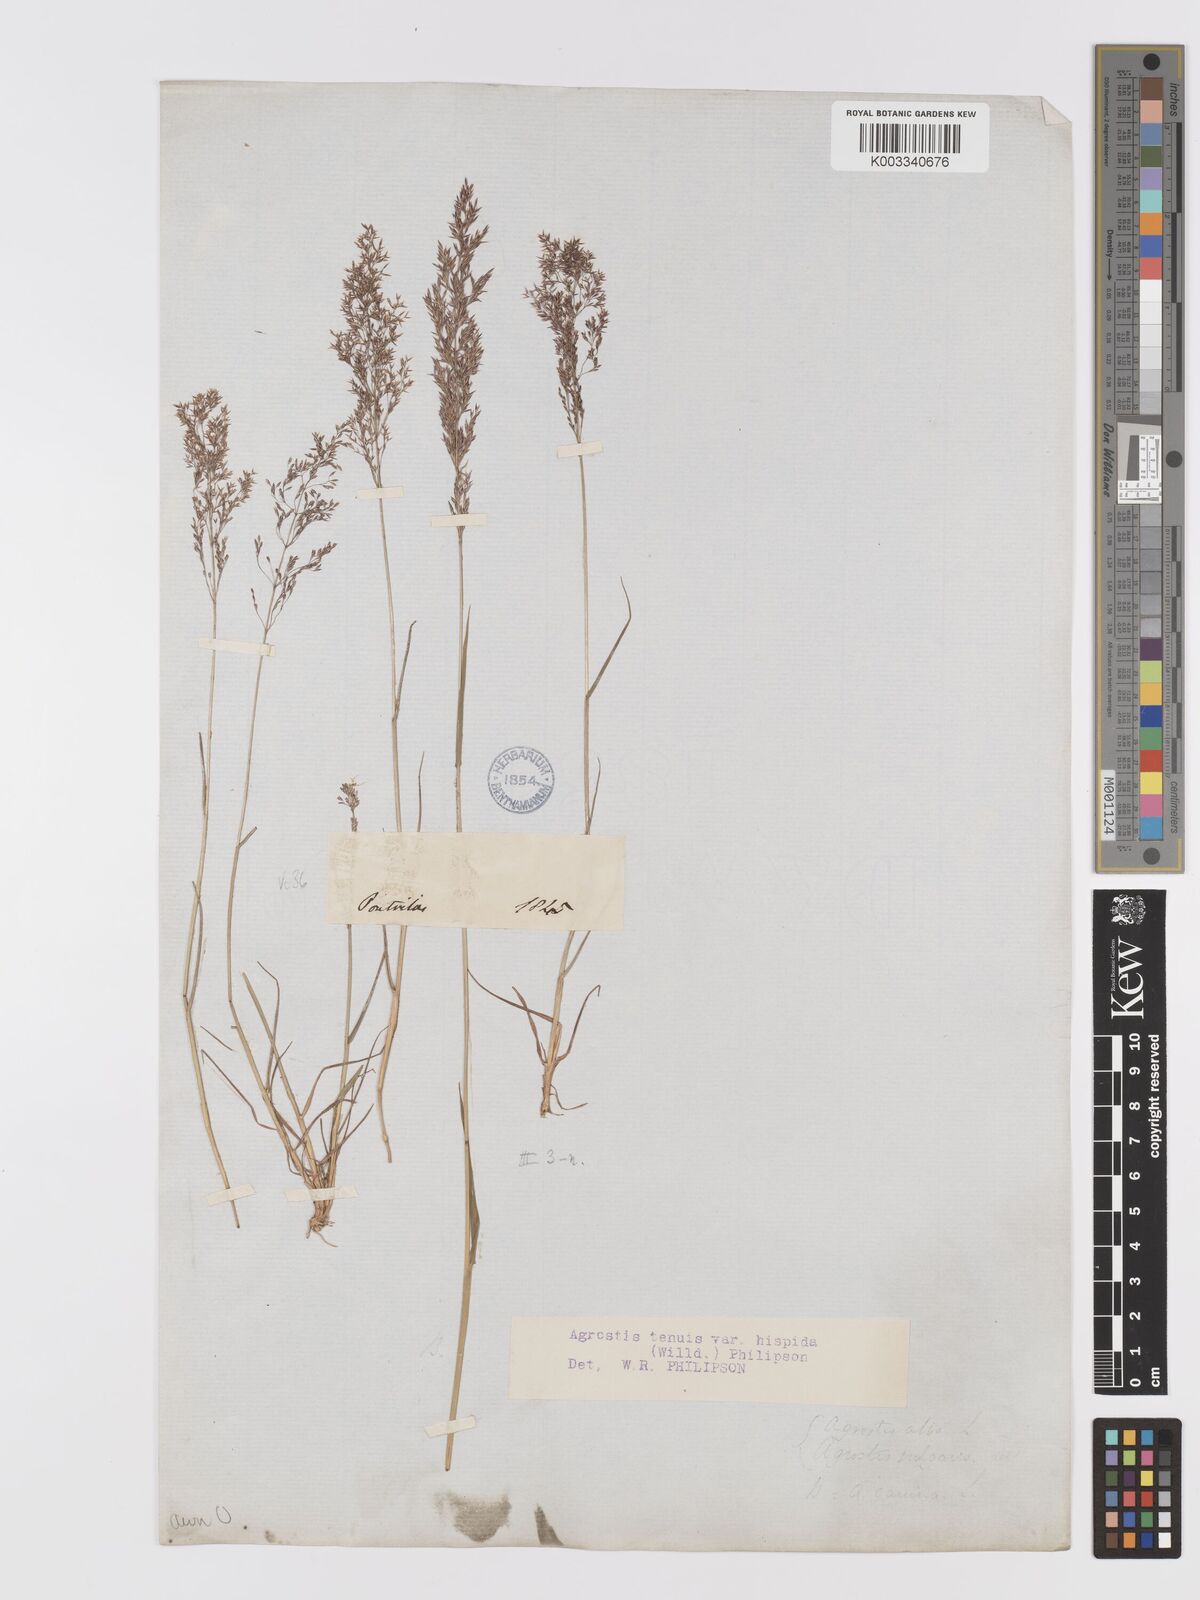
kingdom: Plantae
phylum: Tracheophyta
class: Liliopsida
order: Poales
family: Poaceae
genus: Agrostis
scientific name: Agrostis capillaris
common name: Colonial bentgrass
